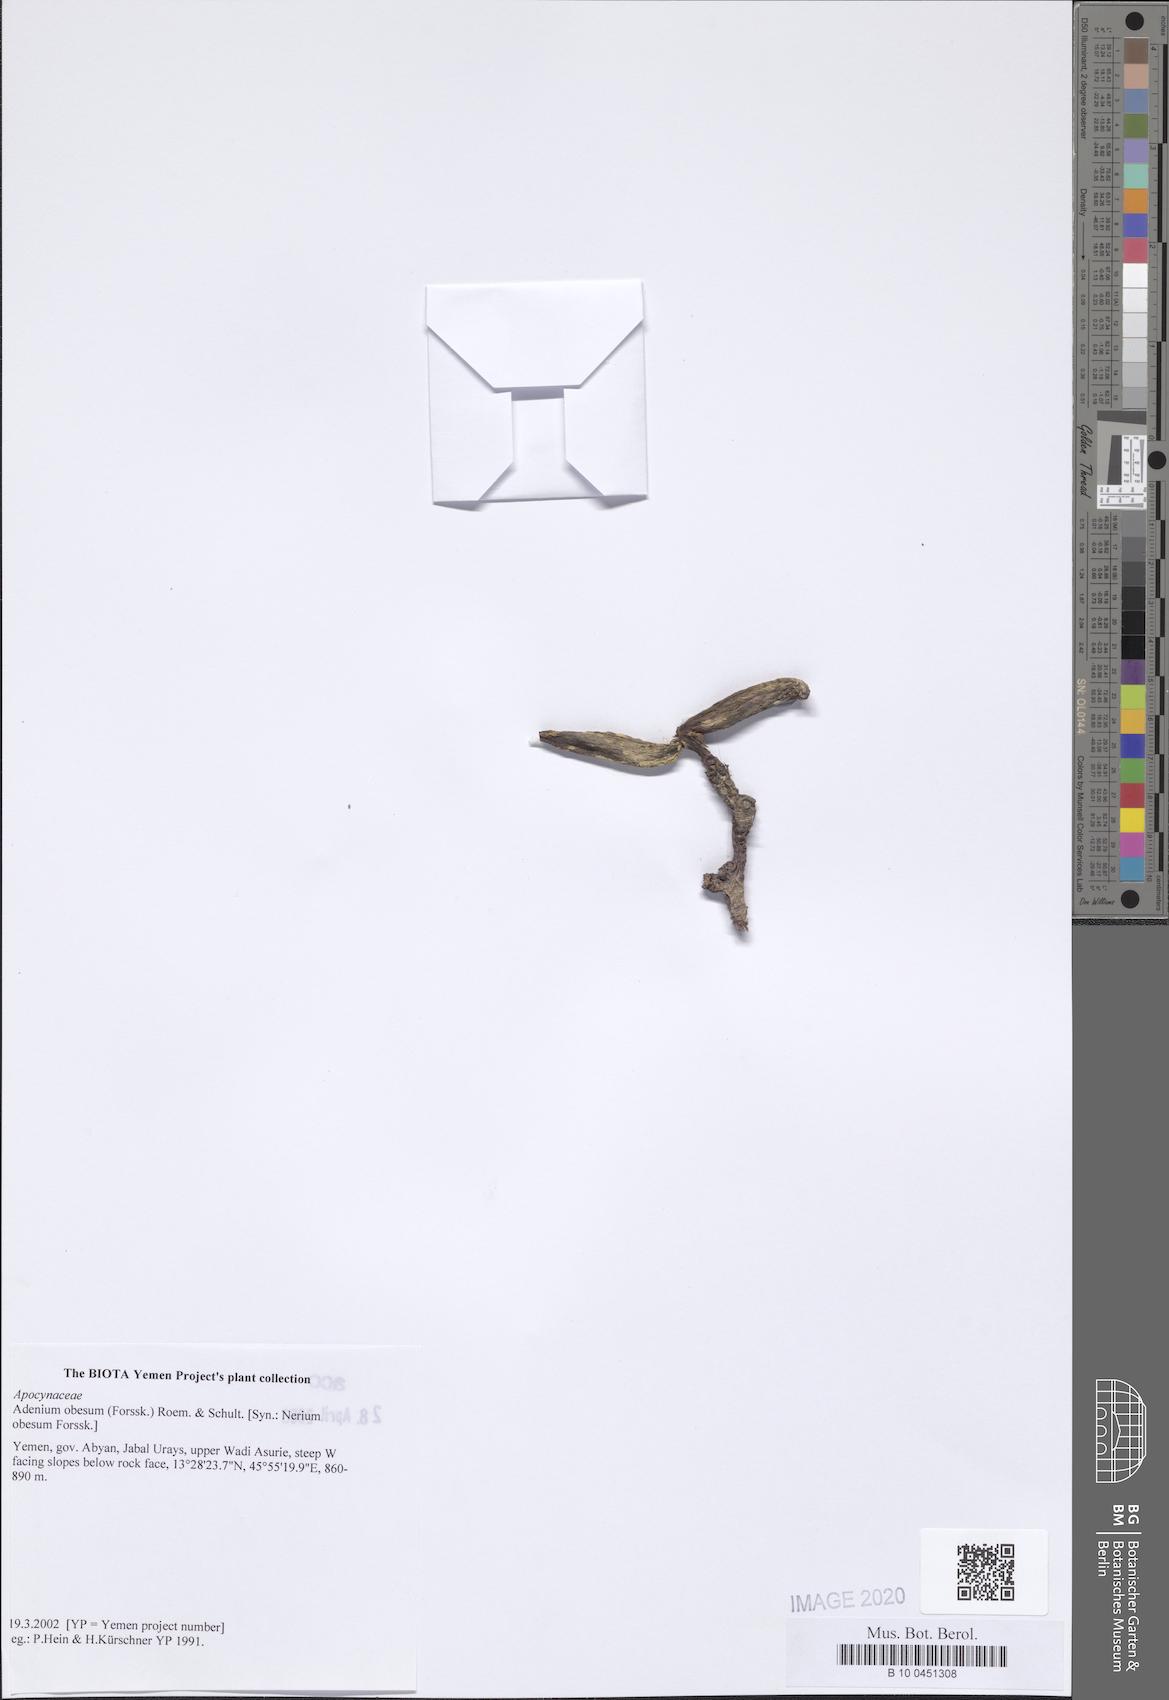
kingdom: Plantae
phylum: Tracheophyta
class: Magnoliopsida
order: Gentianales
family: Apocynaceae
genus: Adenium
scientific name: Adenium obesum
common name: Desert-rose
